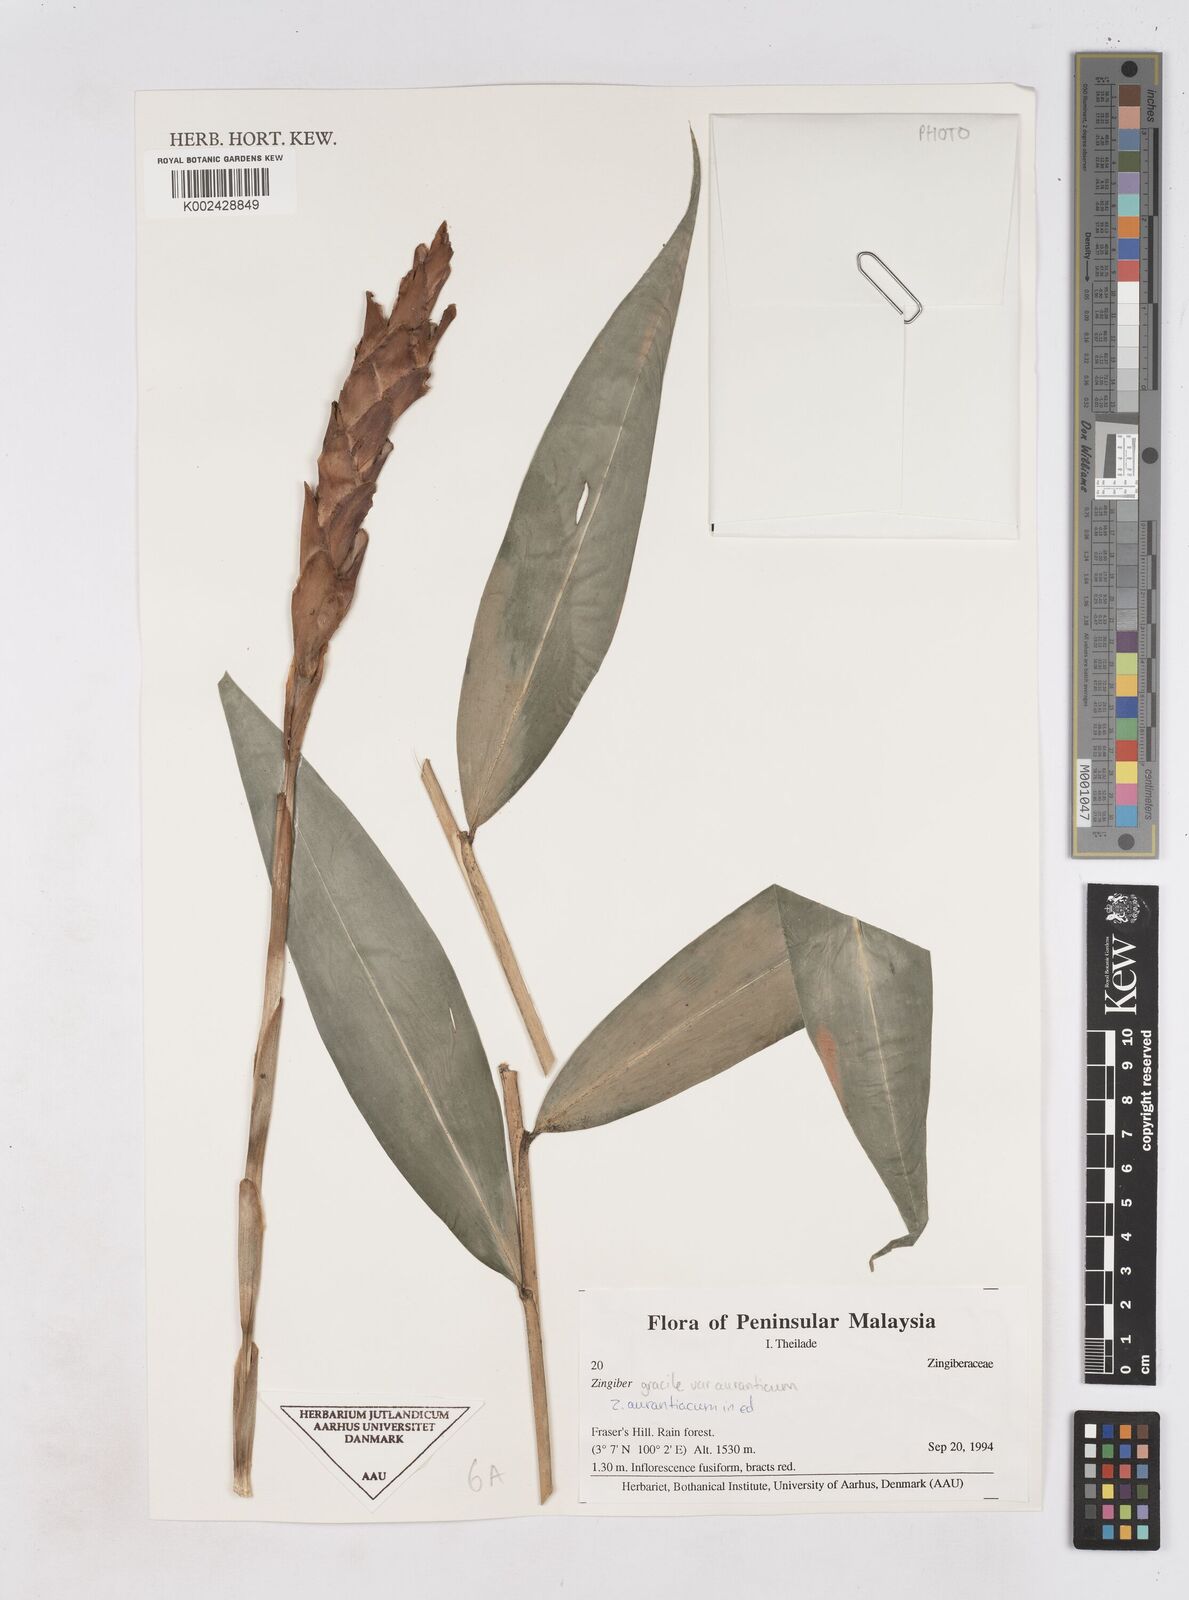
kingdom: Plantae
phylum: Tracheophyta
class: Liliopsida
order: Zingiberales
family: Zingiberaceae
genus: Zingiber
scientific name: Zingiber gracile
